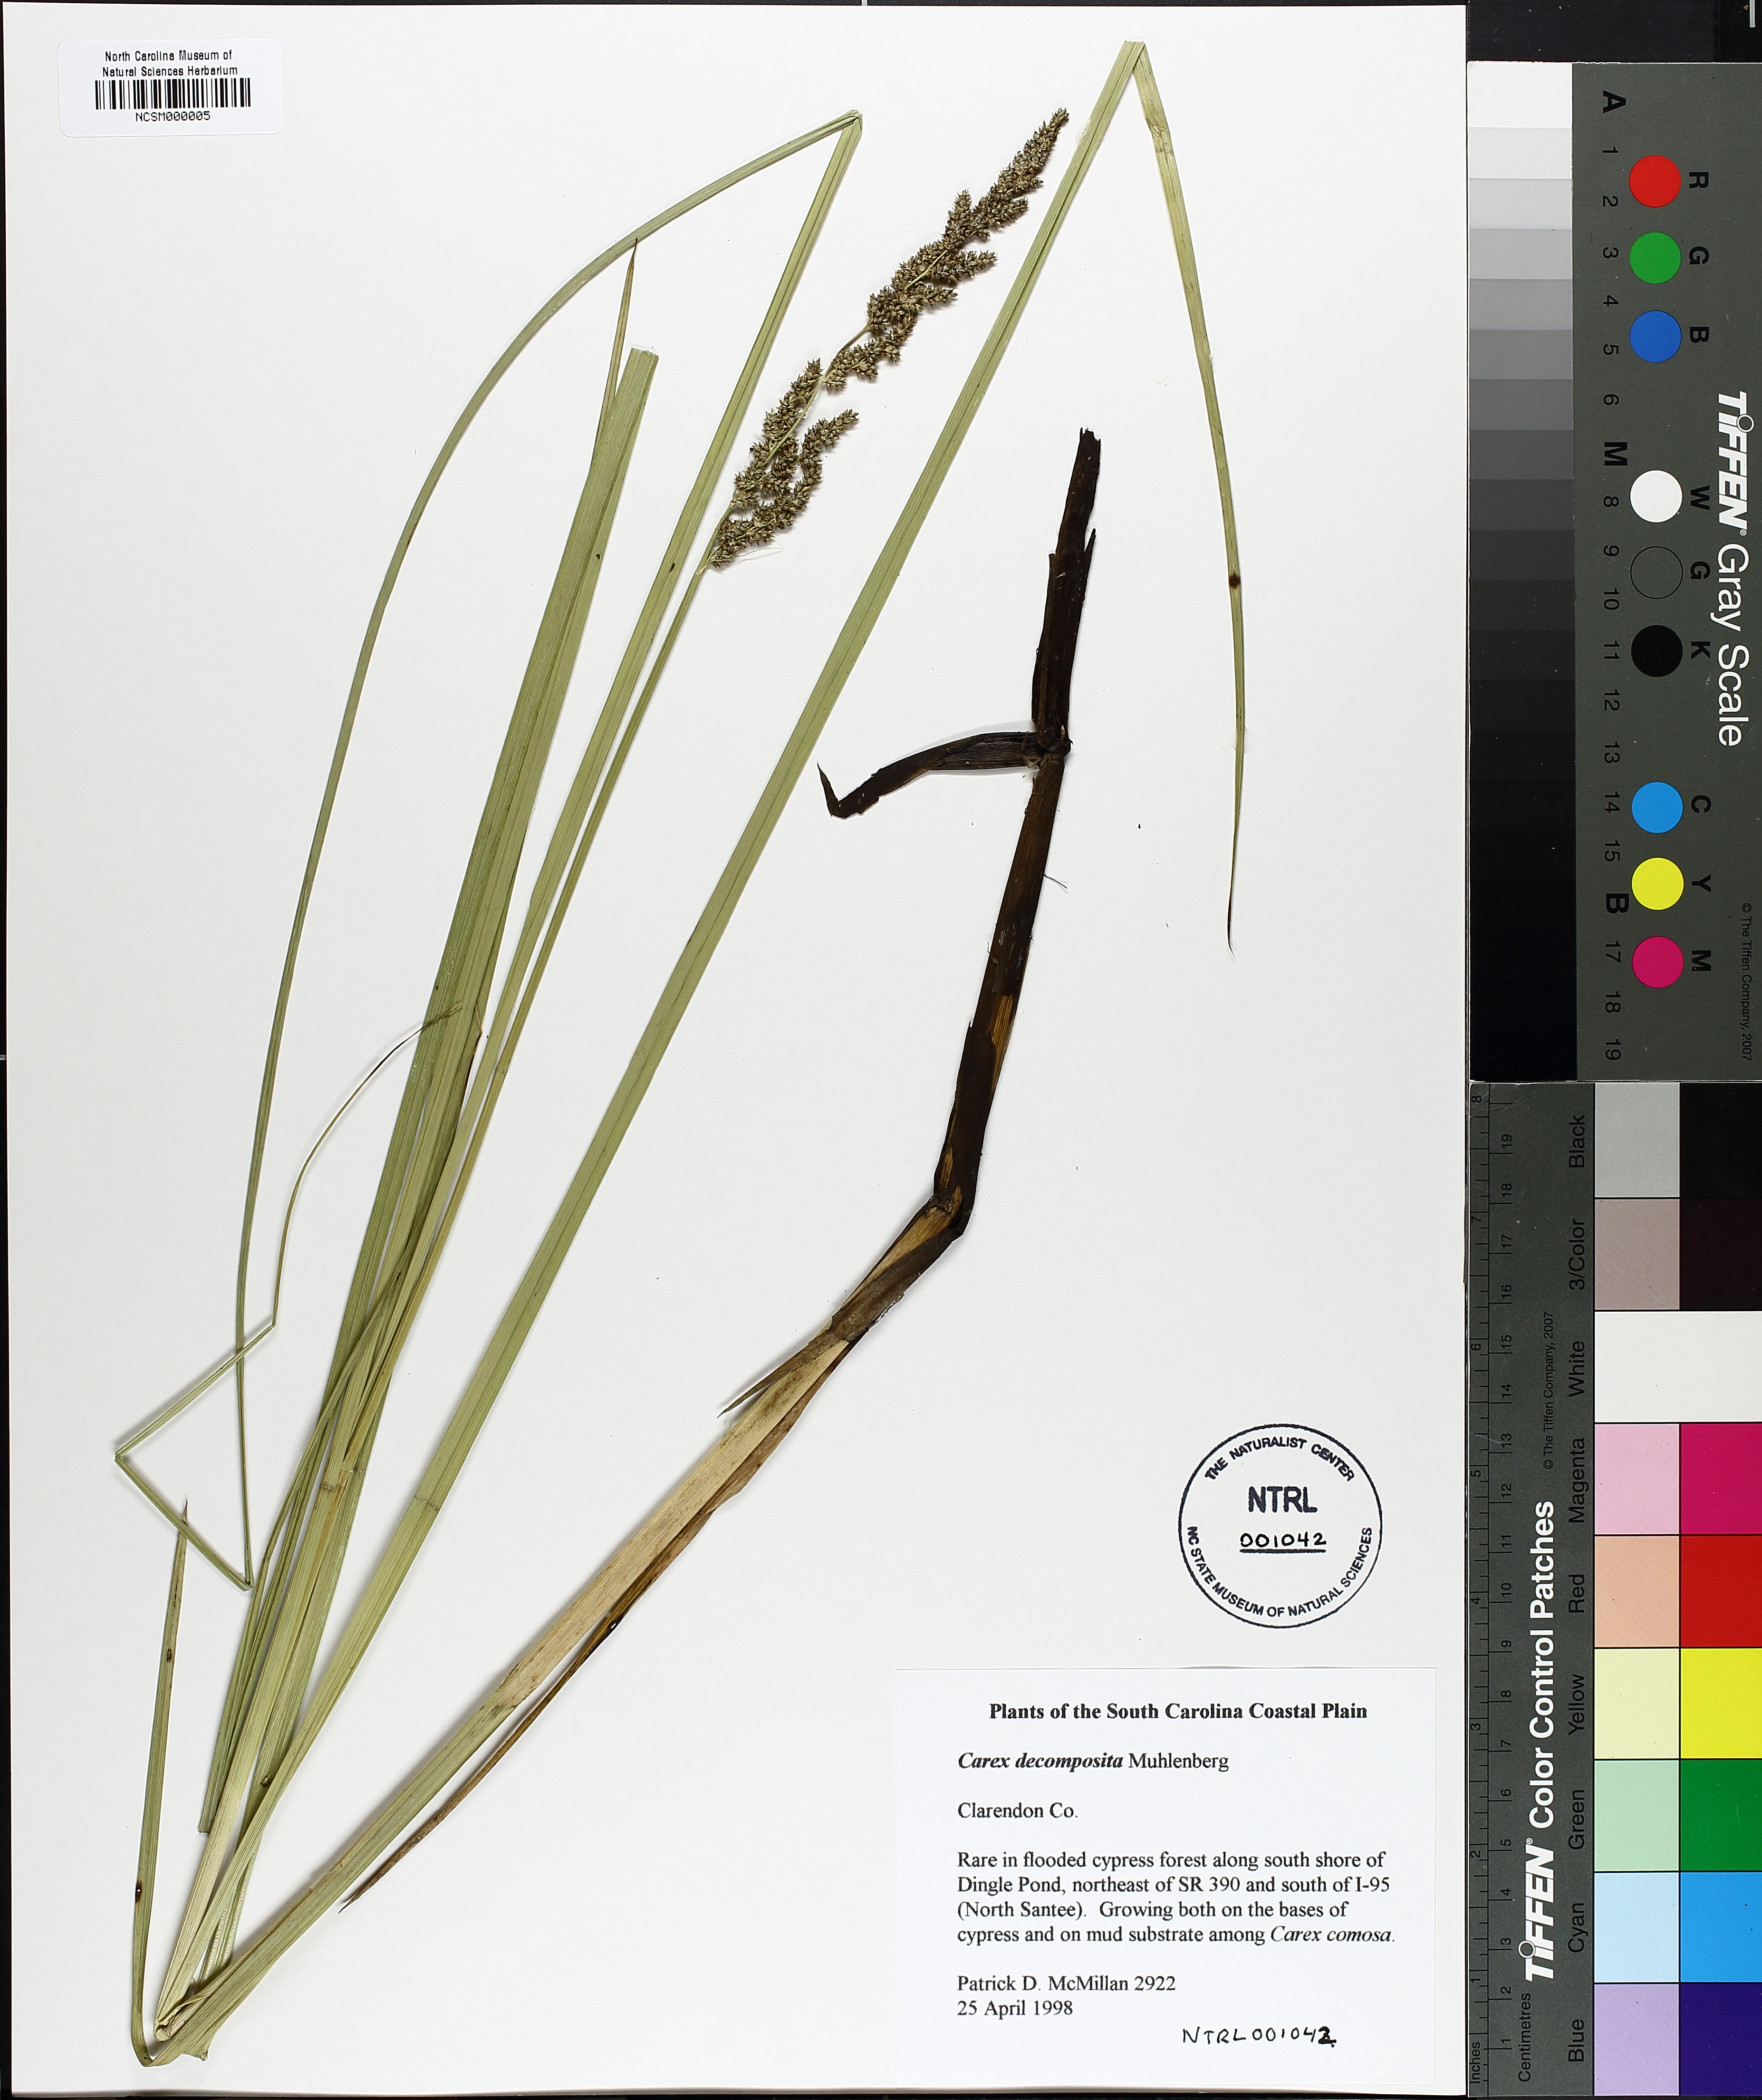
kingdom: Plantae
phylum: Tracheophyta
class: Liliopsida
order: Poales
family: Cyperaceae
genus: Carex
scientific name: Carex decomposita
